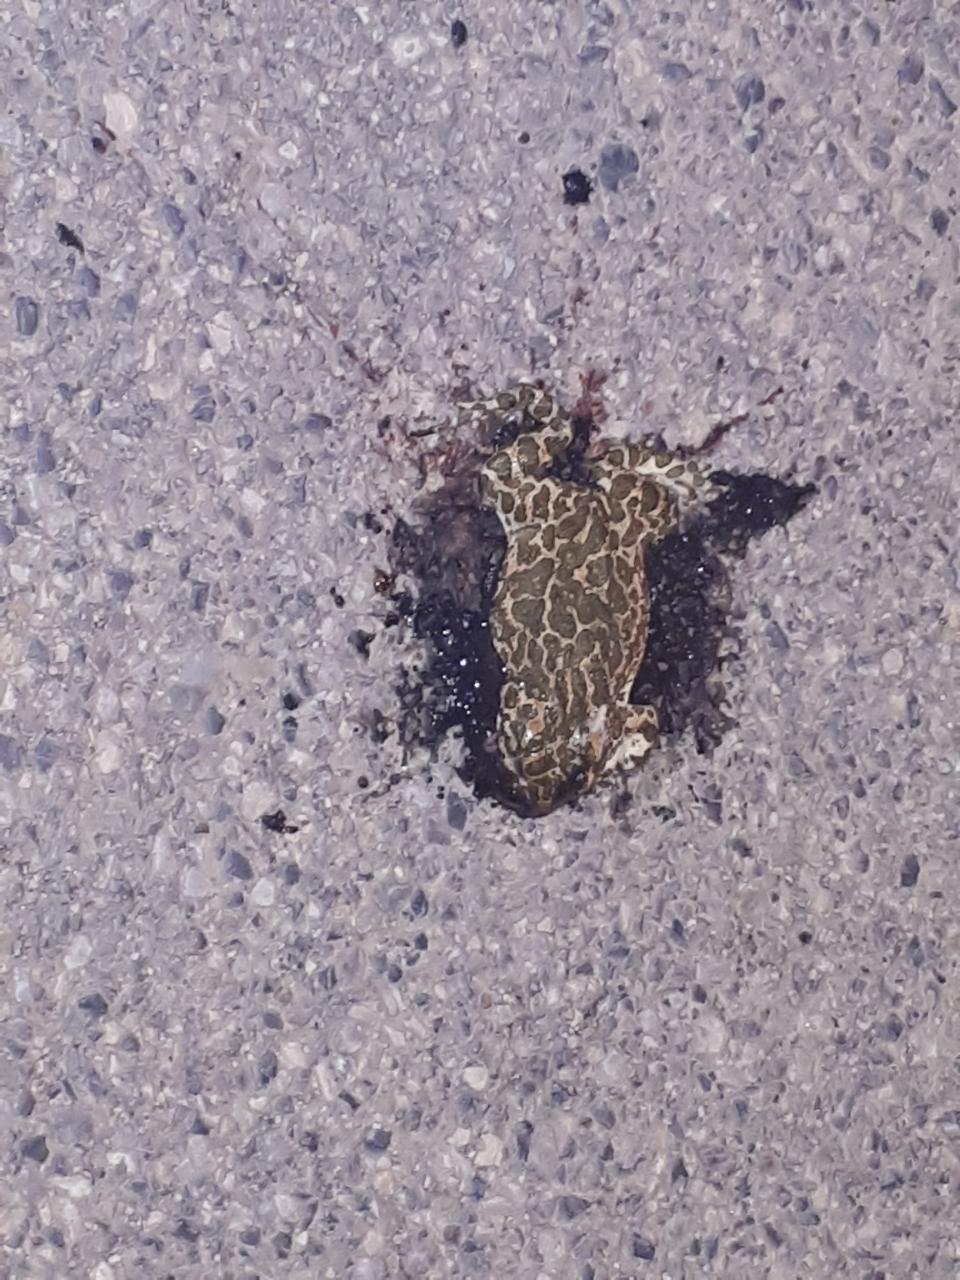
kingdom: Animalia
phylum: Chordata
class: Amphibia
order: Anura
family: Bufonidae
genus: Bufotes
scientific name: Bufotes viridis
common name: European green toad
